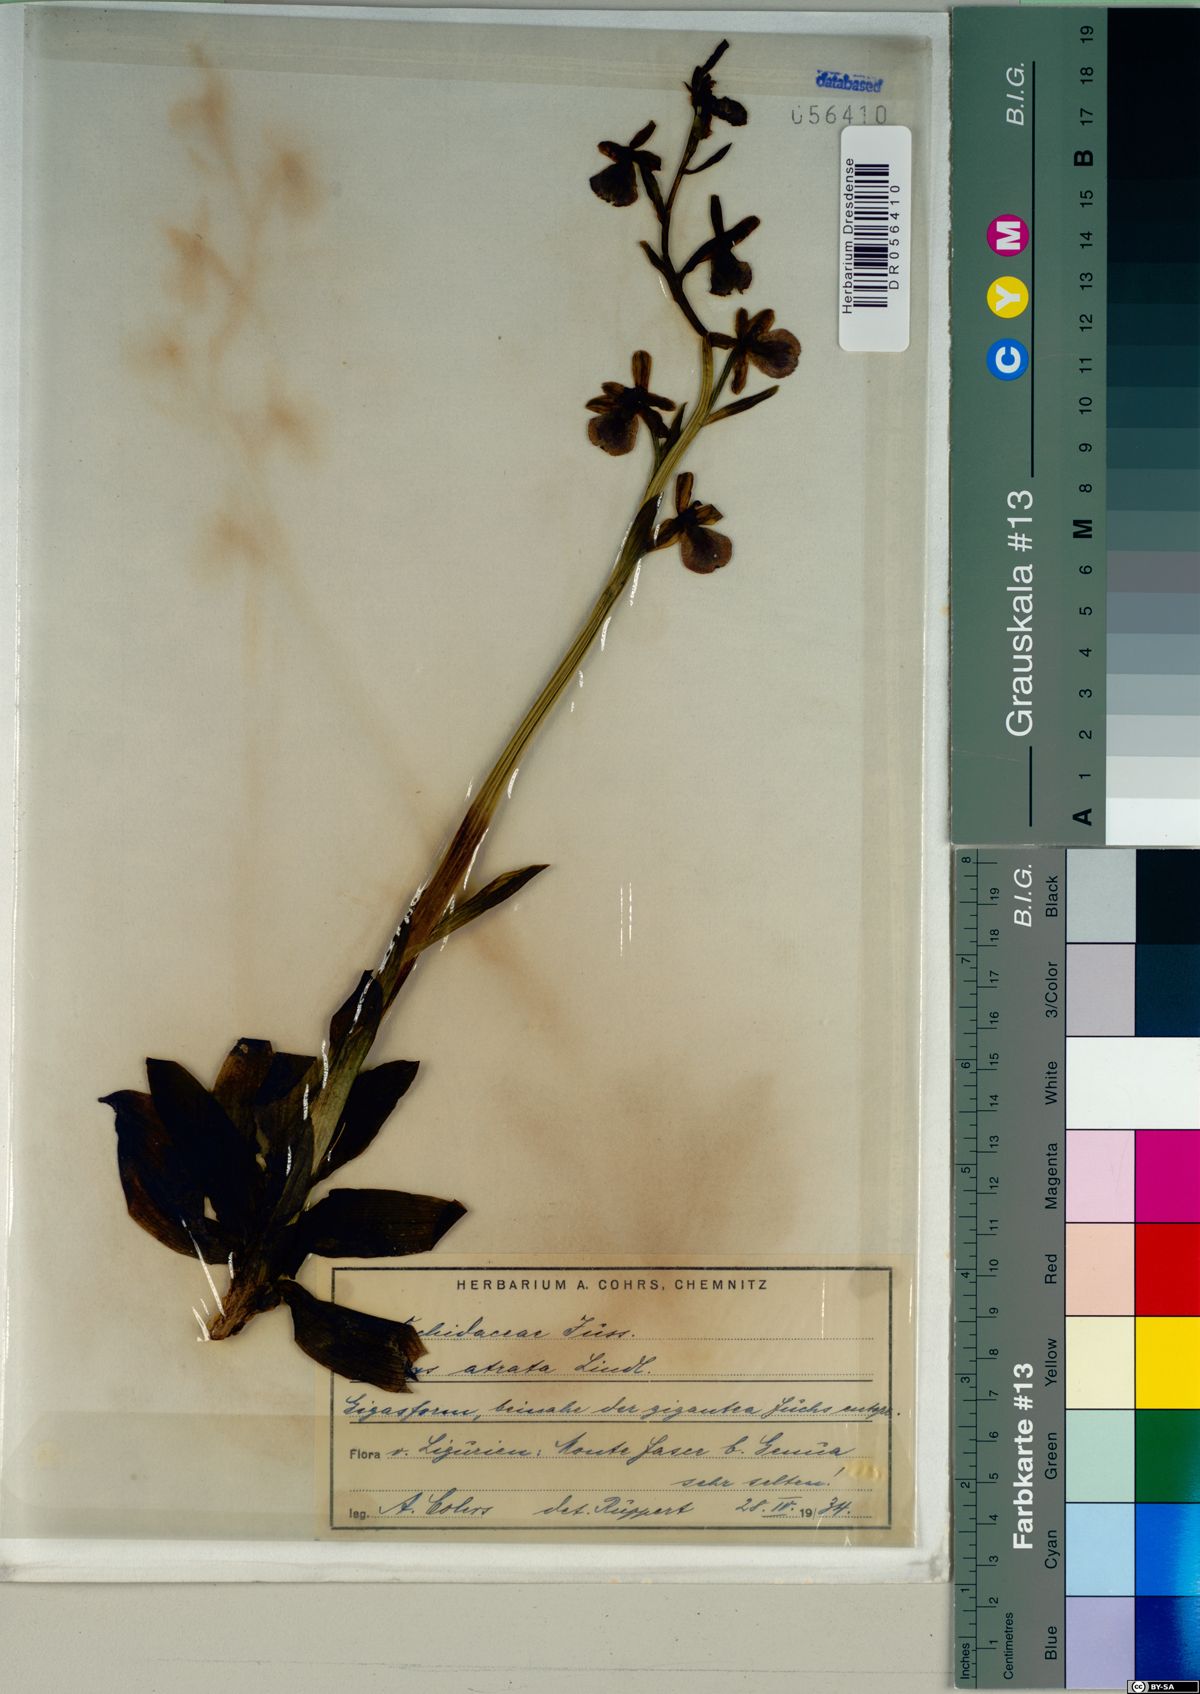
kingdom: Plantae
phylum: Tracheophyta
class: Liliopsida
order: Asparagales
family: Orchidaceae
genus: Ophrys
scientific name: Ophrys sphegodes
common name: Early spider-orchid
